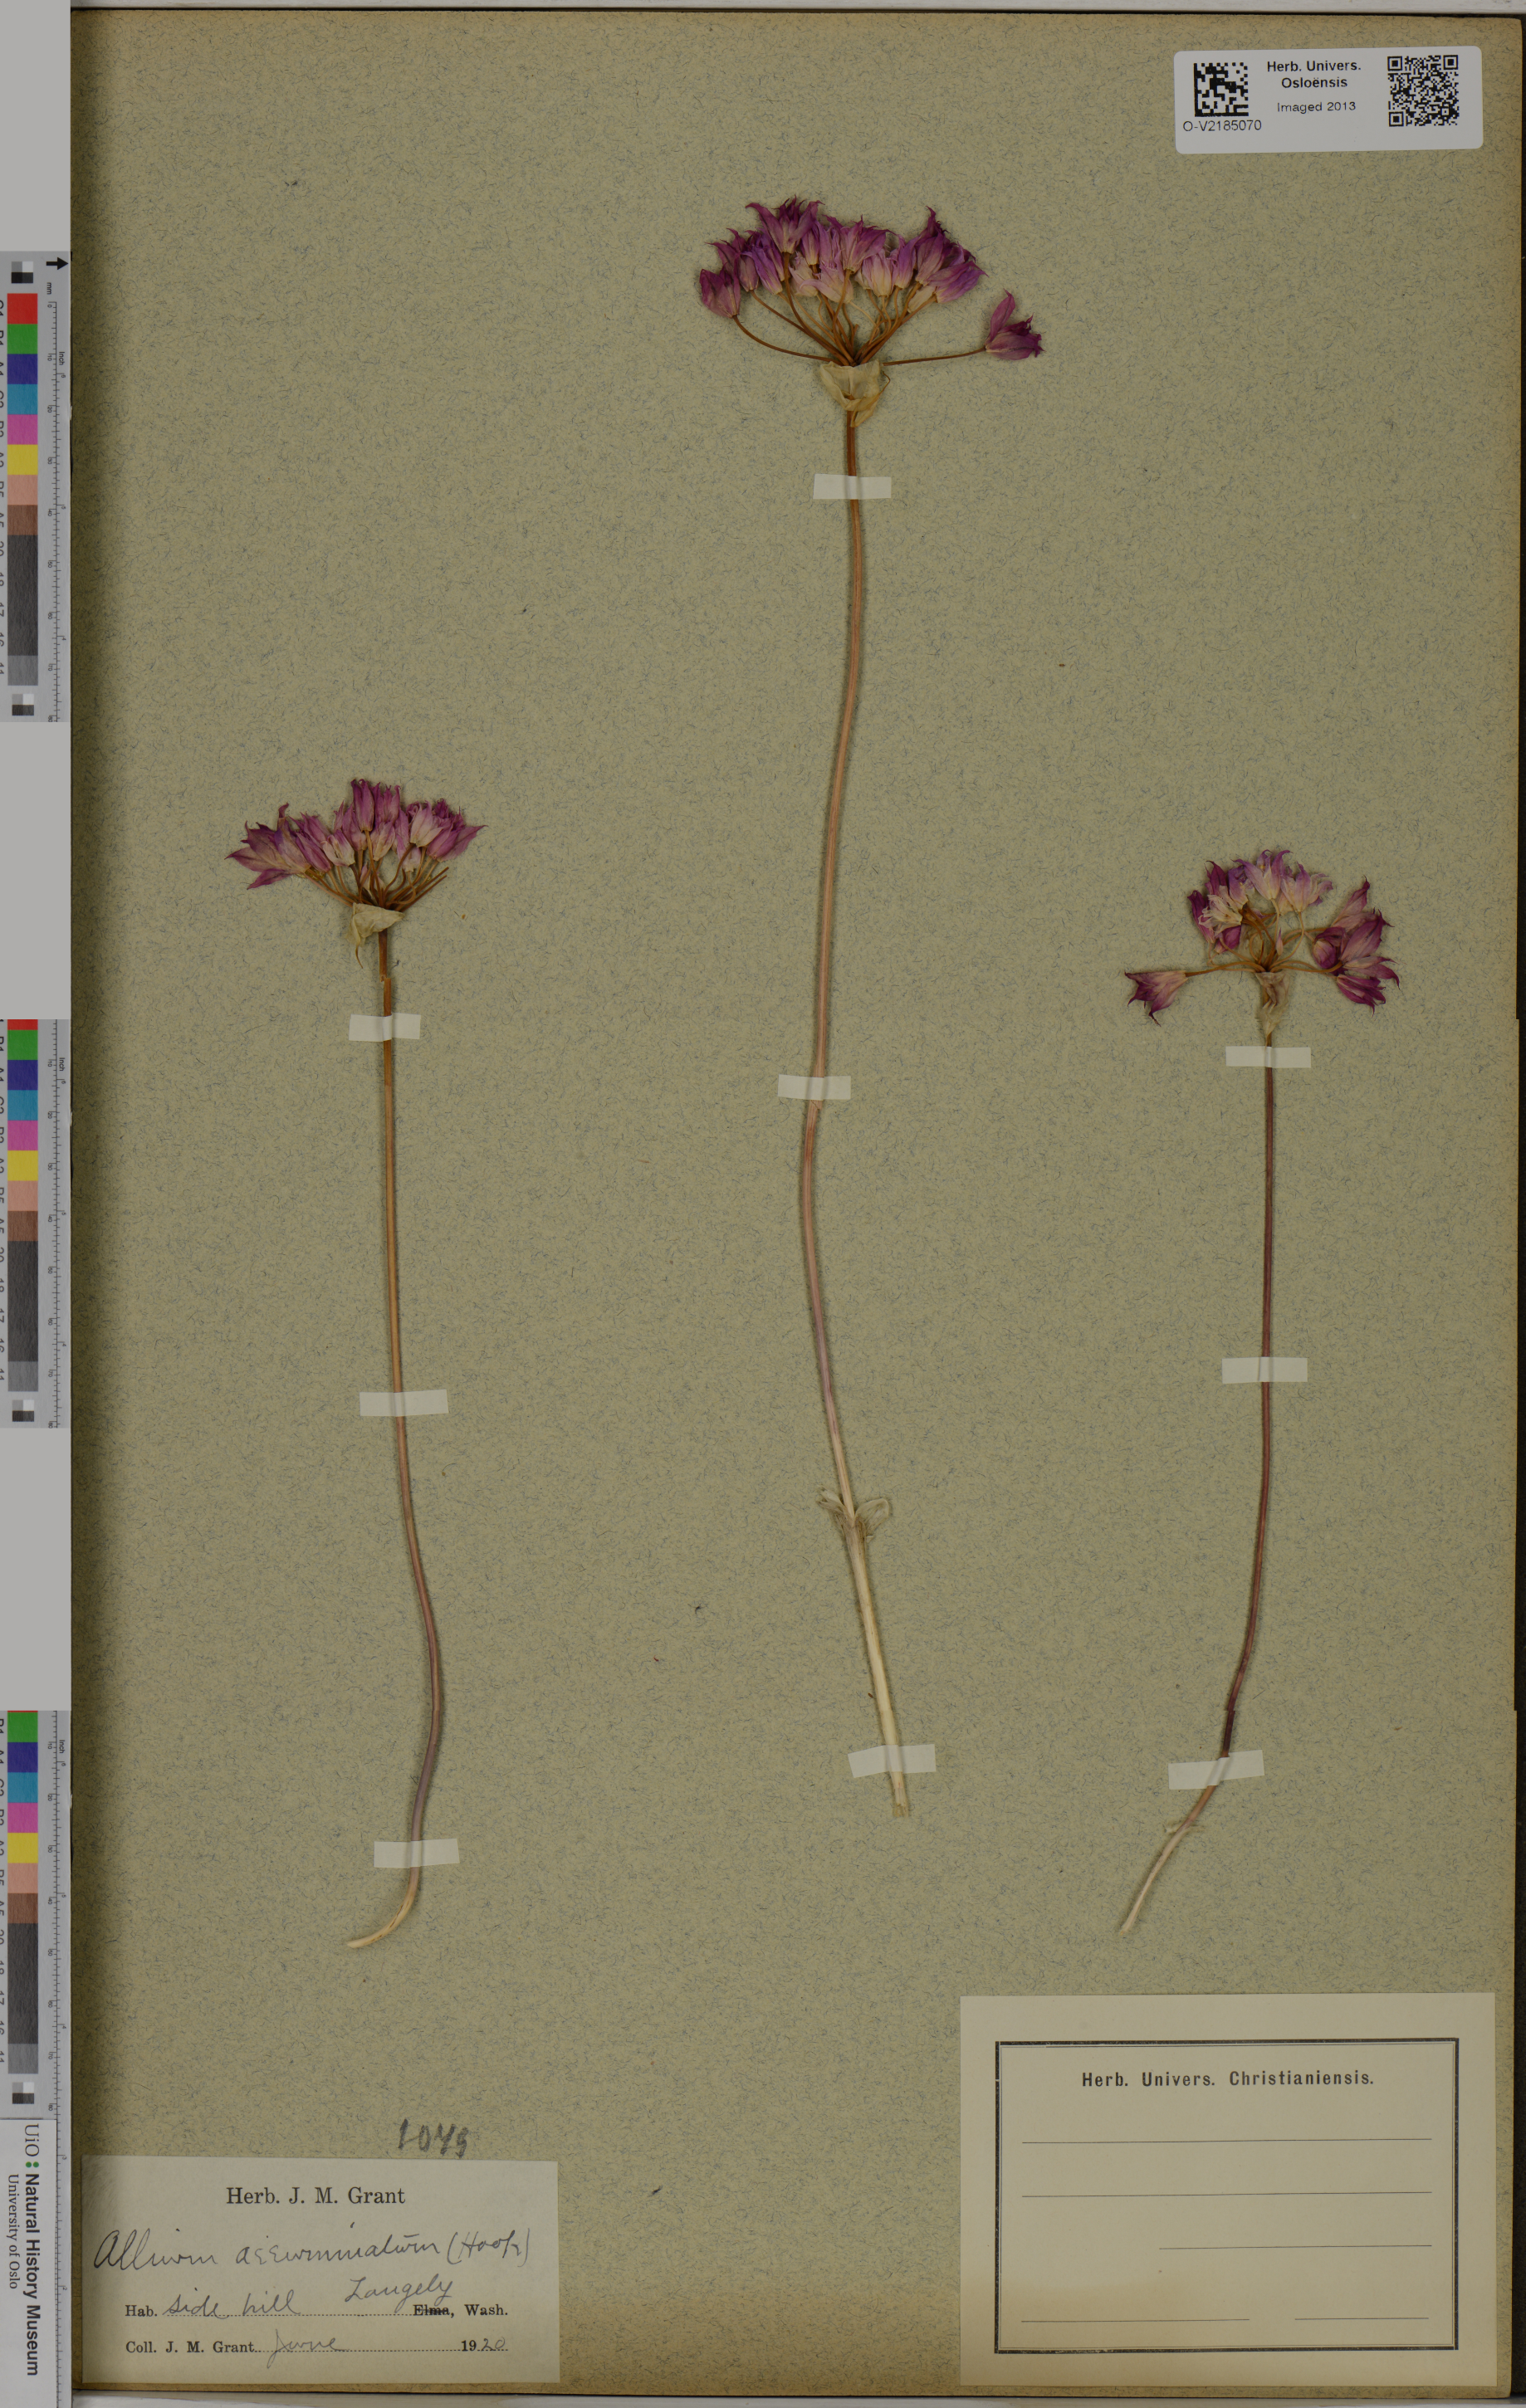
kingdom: Plantae
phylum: Tracheophyta
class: Liliopsida
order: Asparagales
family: Amaryllidaceae
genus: Allium
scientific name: Allium acuminatum
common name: Hooker's onion
